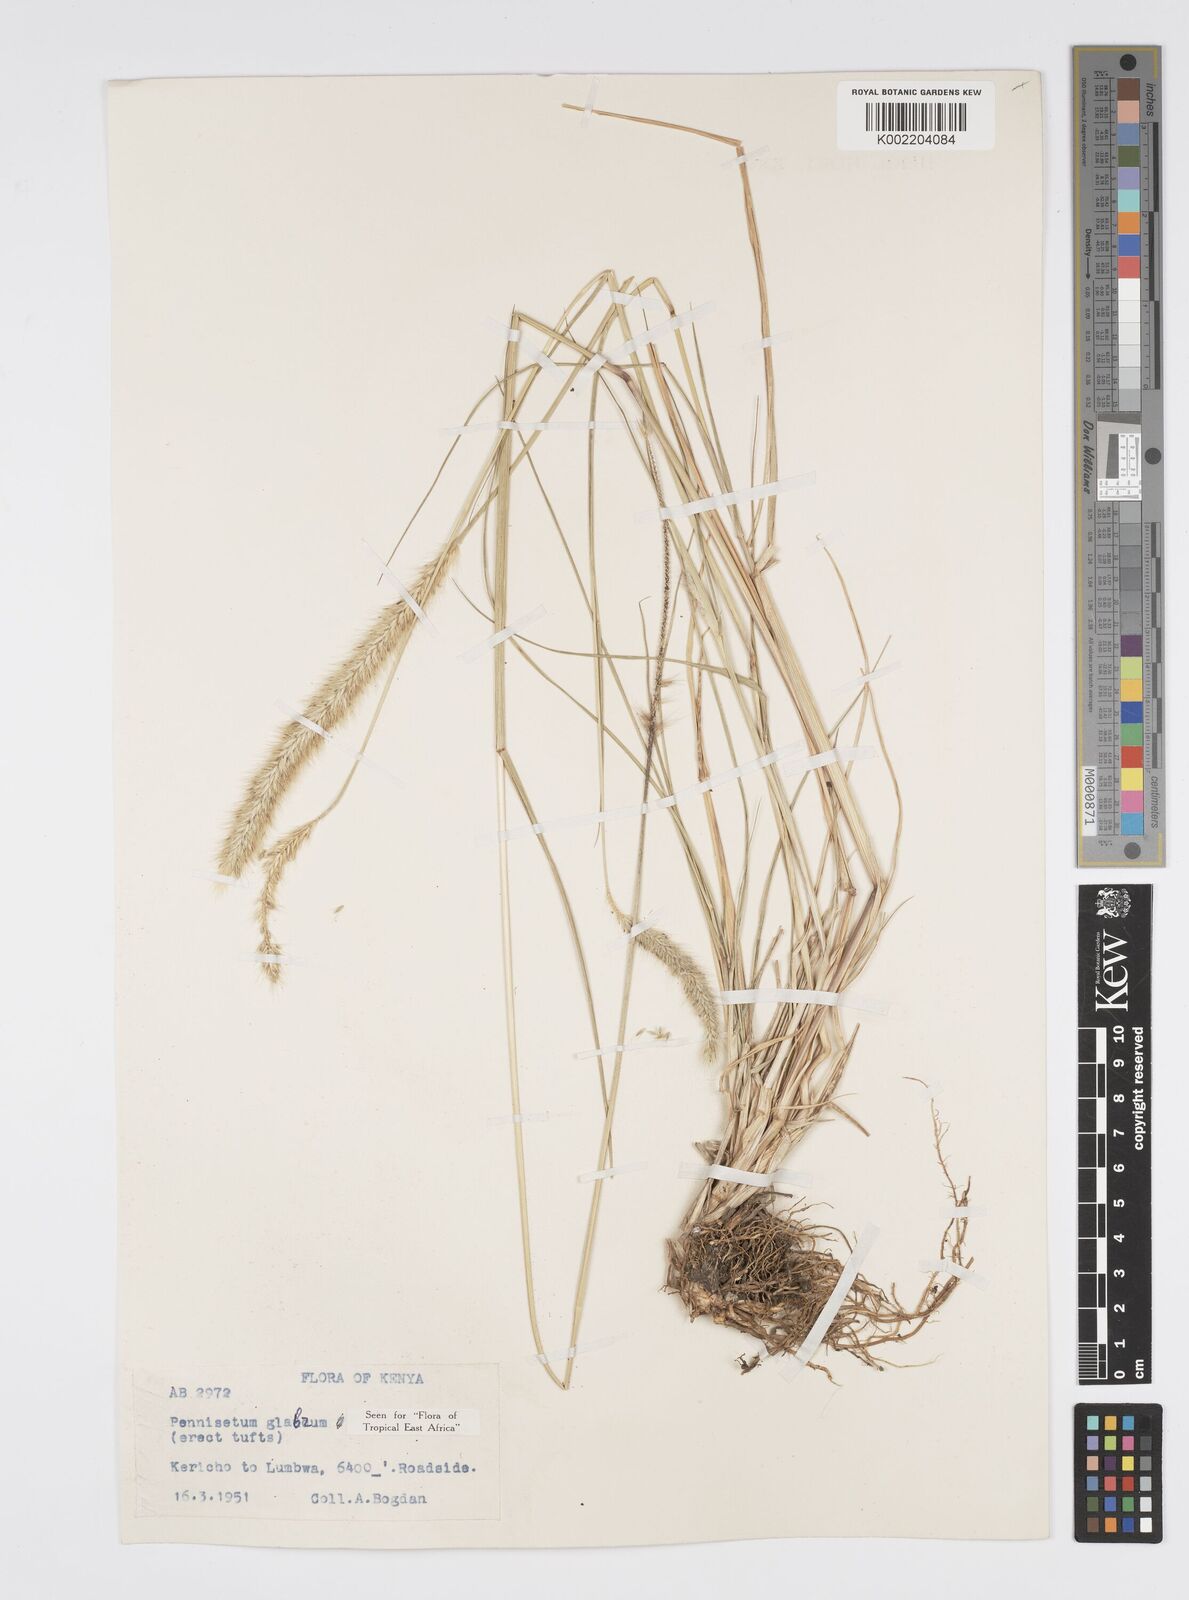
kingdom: Plantae
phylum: Tracheophyta
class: Liliopsida
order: Poales
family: Poaceae
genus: Cenchrus
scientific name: Cenchrus geniculatus
